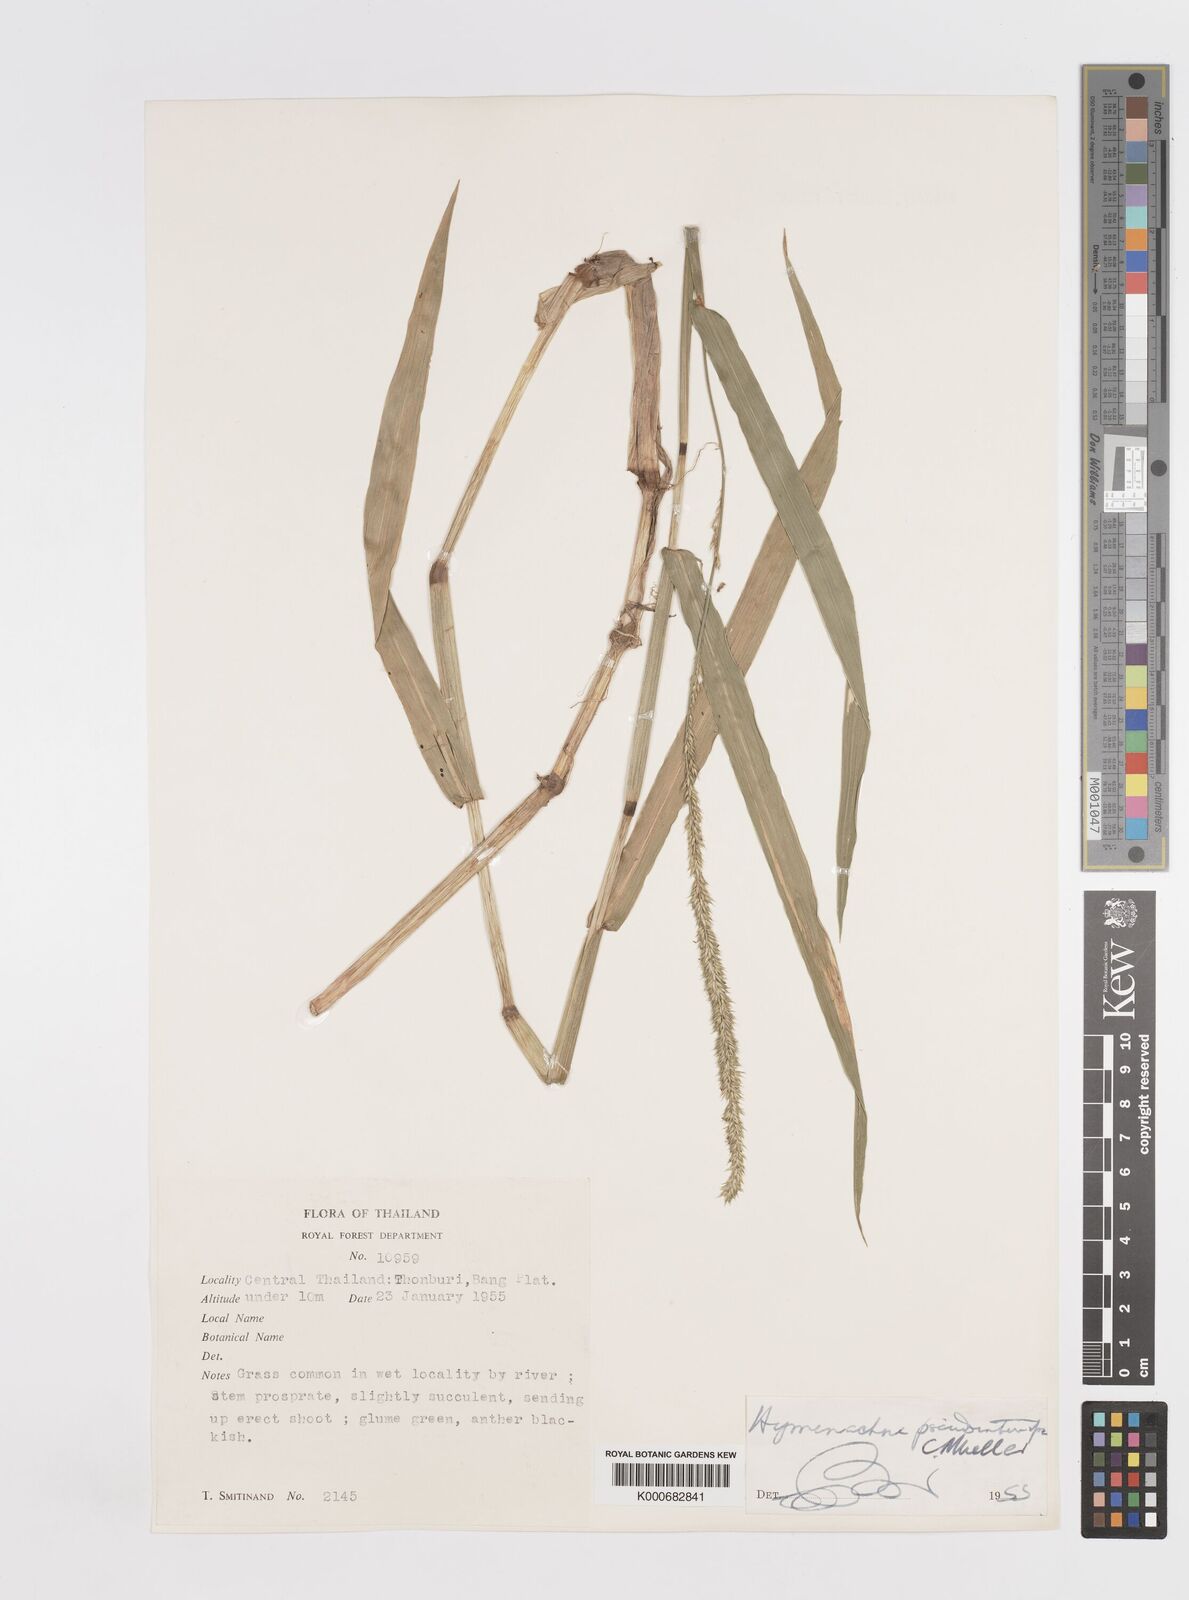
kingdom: Plantae
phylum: Tracheophyta
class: Liliopsida
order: Poales
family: Poaceae
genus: Hymenachne
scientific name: Hymenachne amplexicaulis
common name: Olive hymenachne
